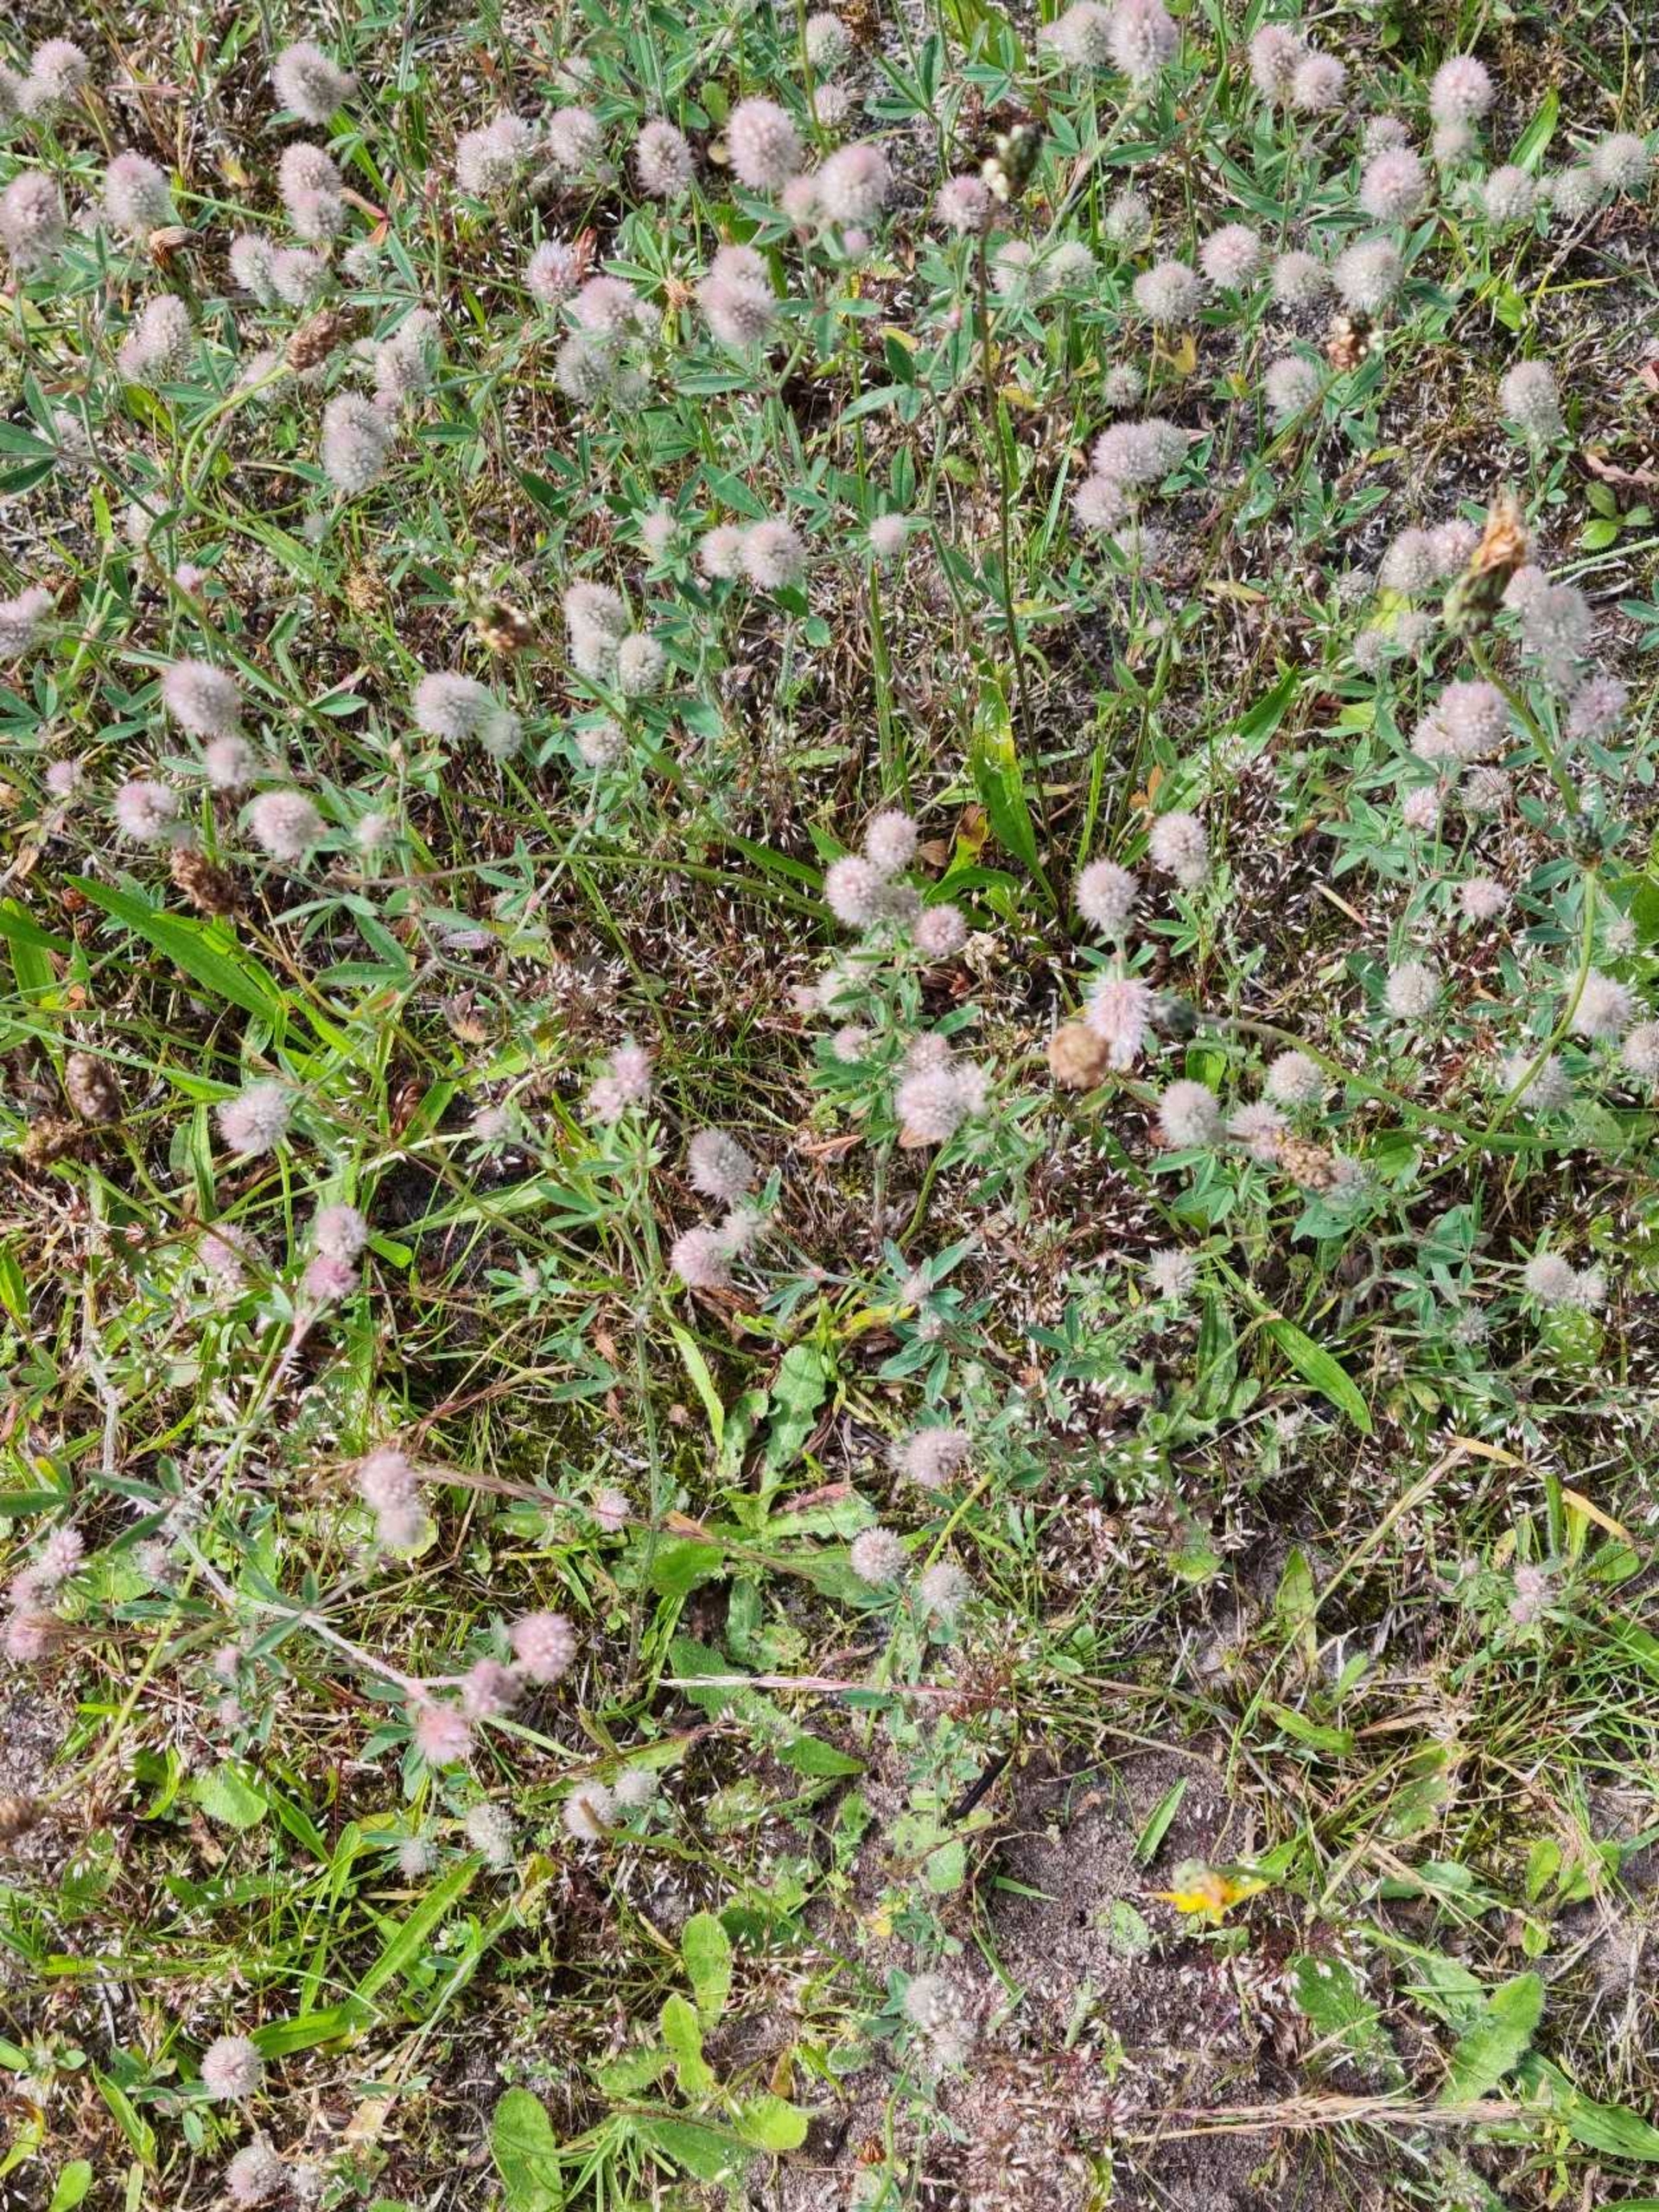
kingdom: Plantae
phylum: Tracheophyta
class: Magnoliopsida
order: Fabales
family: Fabaceae
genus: Trifolium
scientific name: Trifolium arvense
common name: Hare-kløver
